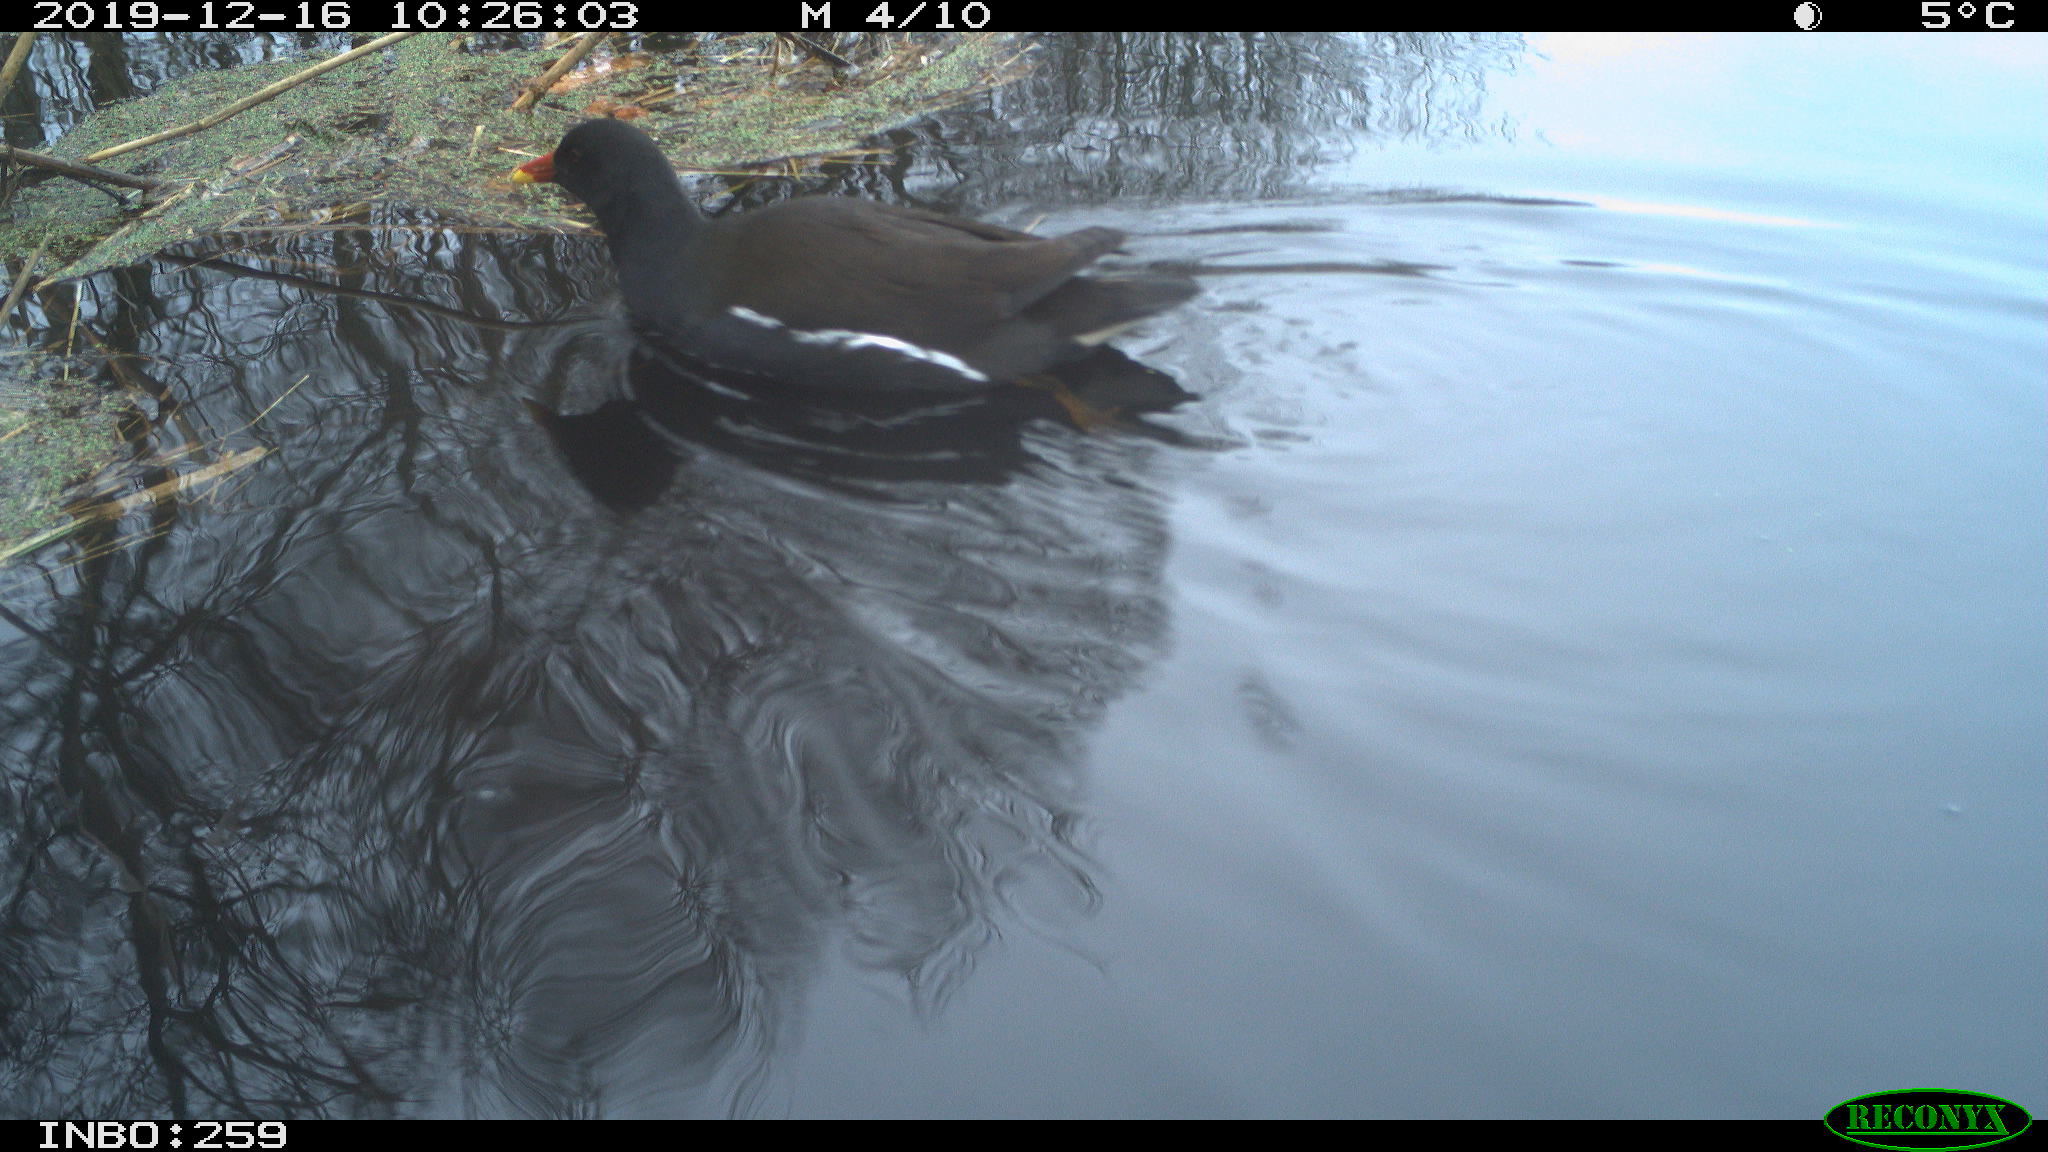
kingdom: Animalia
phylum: Chordata
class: Aves
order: Gruiformes
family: Rallidae
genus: Gallinula
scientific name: Gallinula chloropus
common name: Common moorhen
